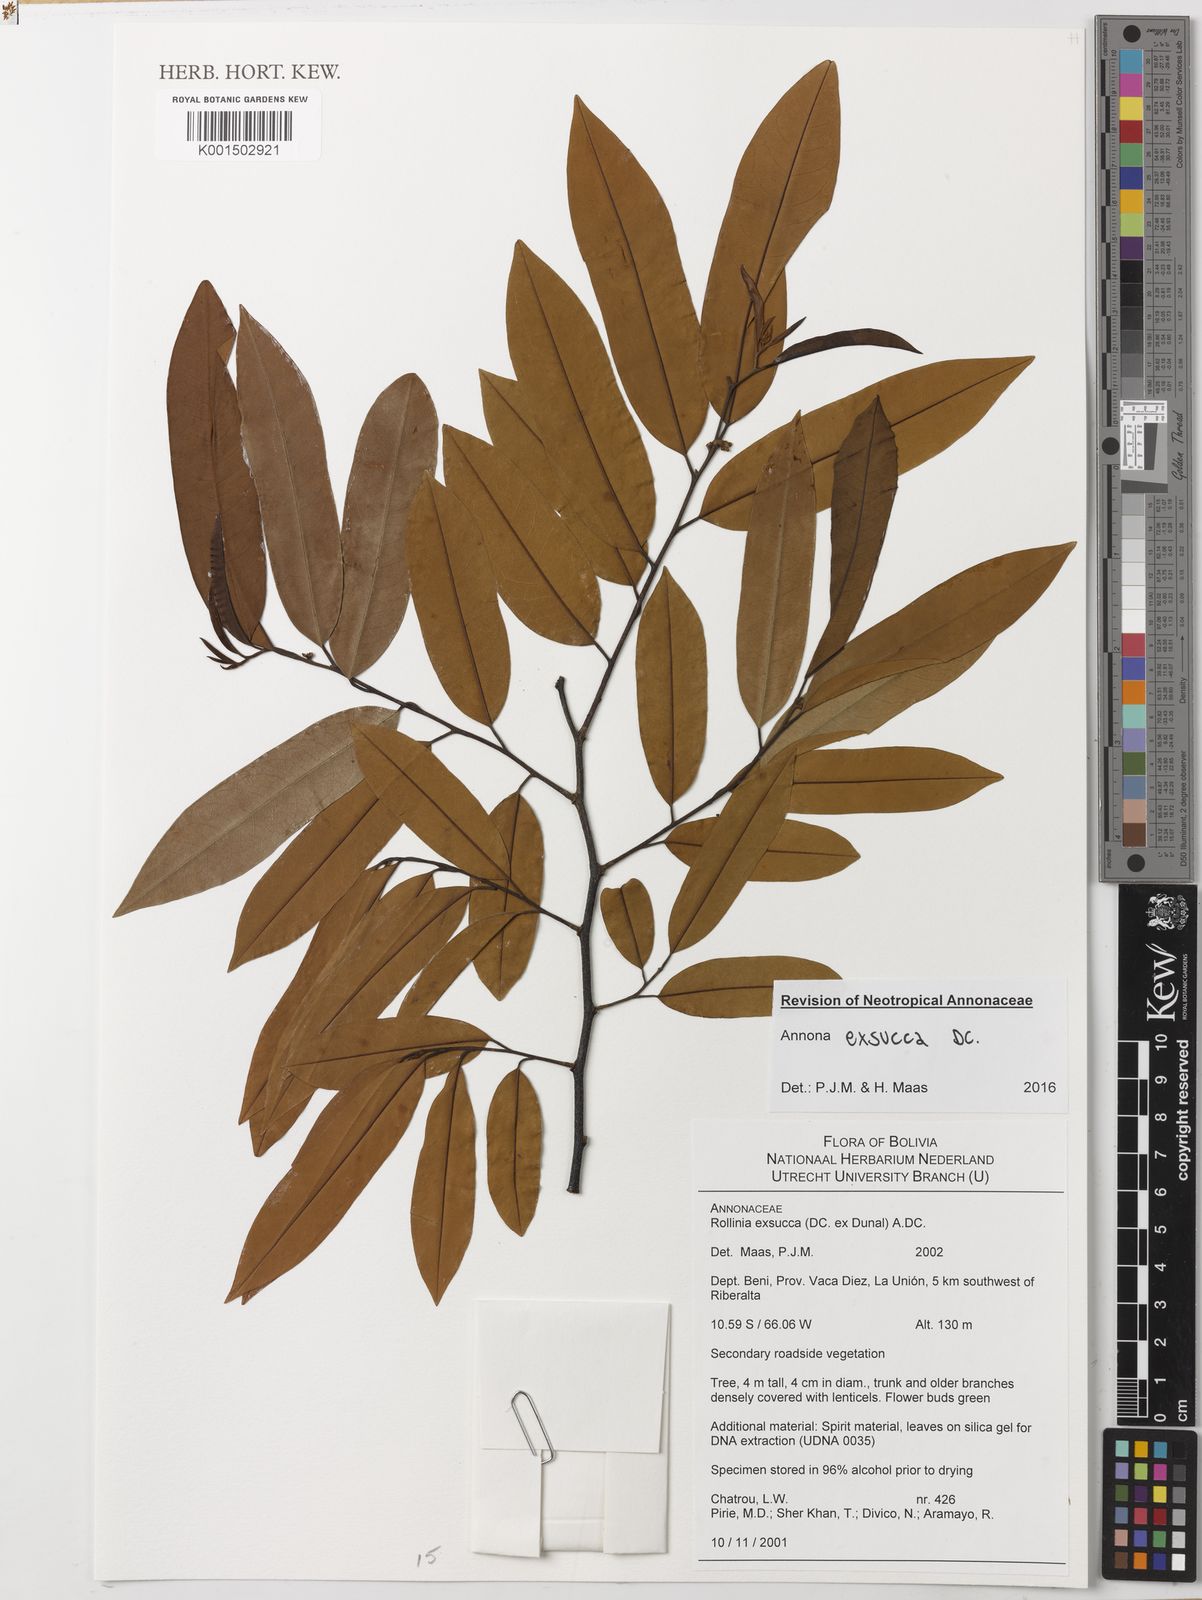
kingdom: Plantae
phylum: Tracheophyta
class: Magnoliopsida
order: Magnoliales
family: Annonaceae
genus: Annona
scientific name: Annona exsucca
